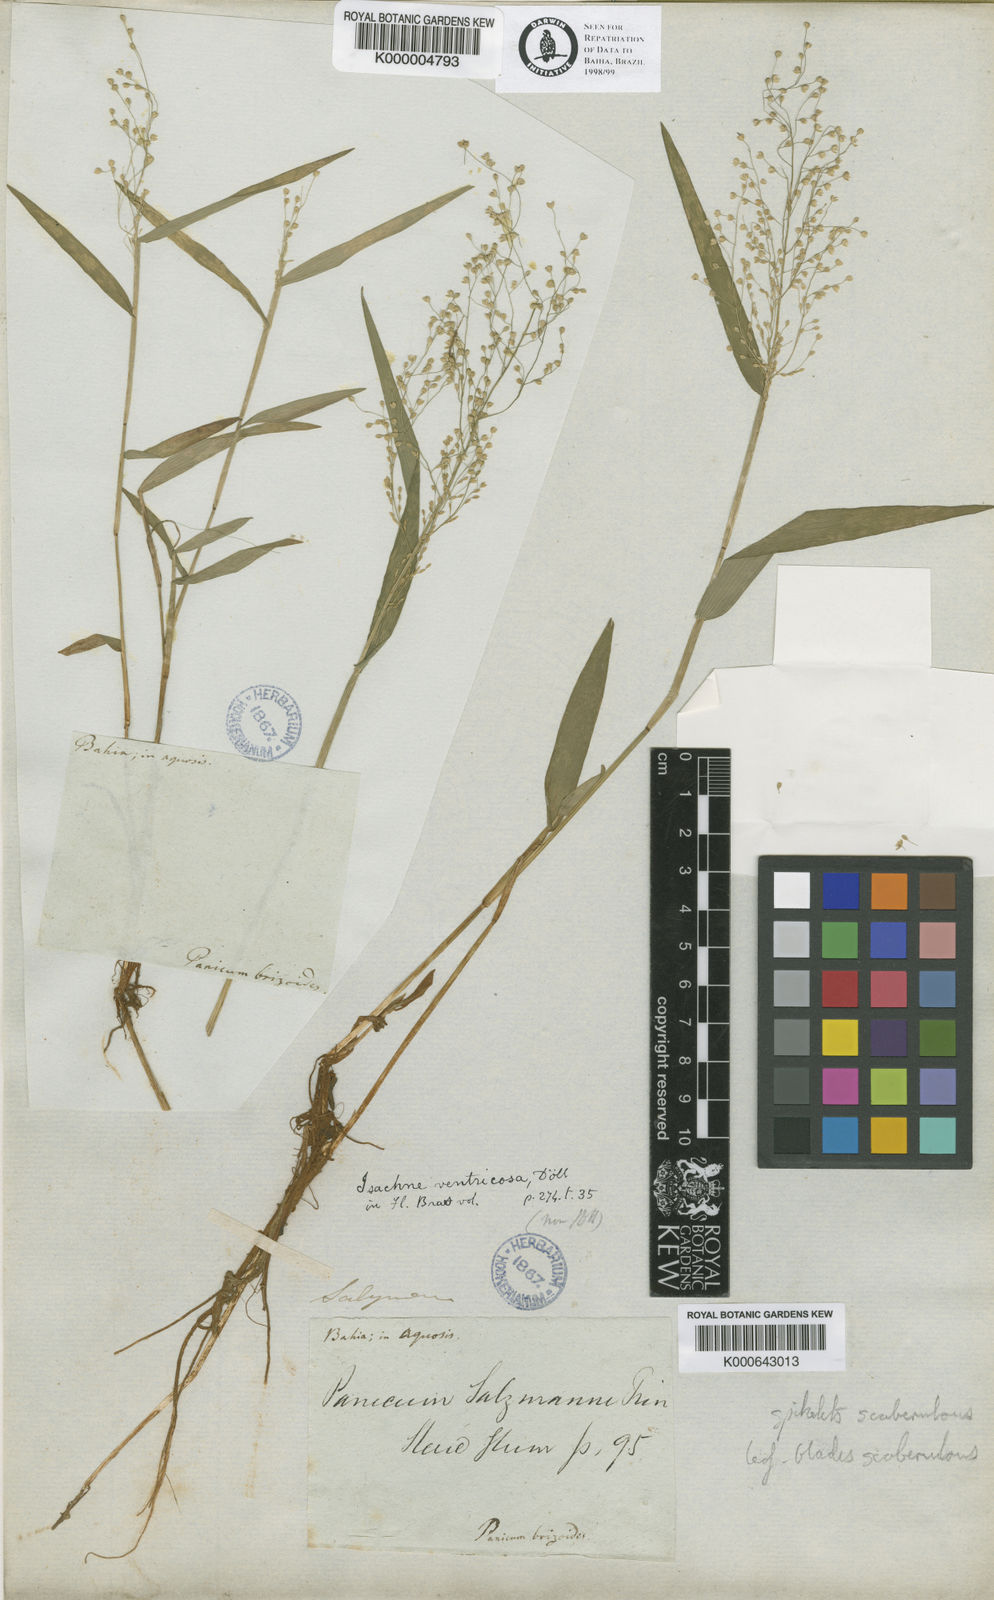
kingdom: Plantae
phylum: Tracheophyta
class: Liliopsida
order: Poales
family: Poaceae
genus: Isachne
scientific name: Isachne salzmannii
